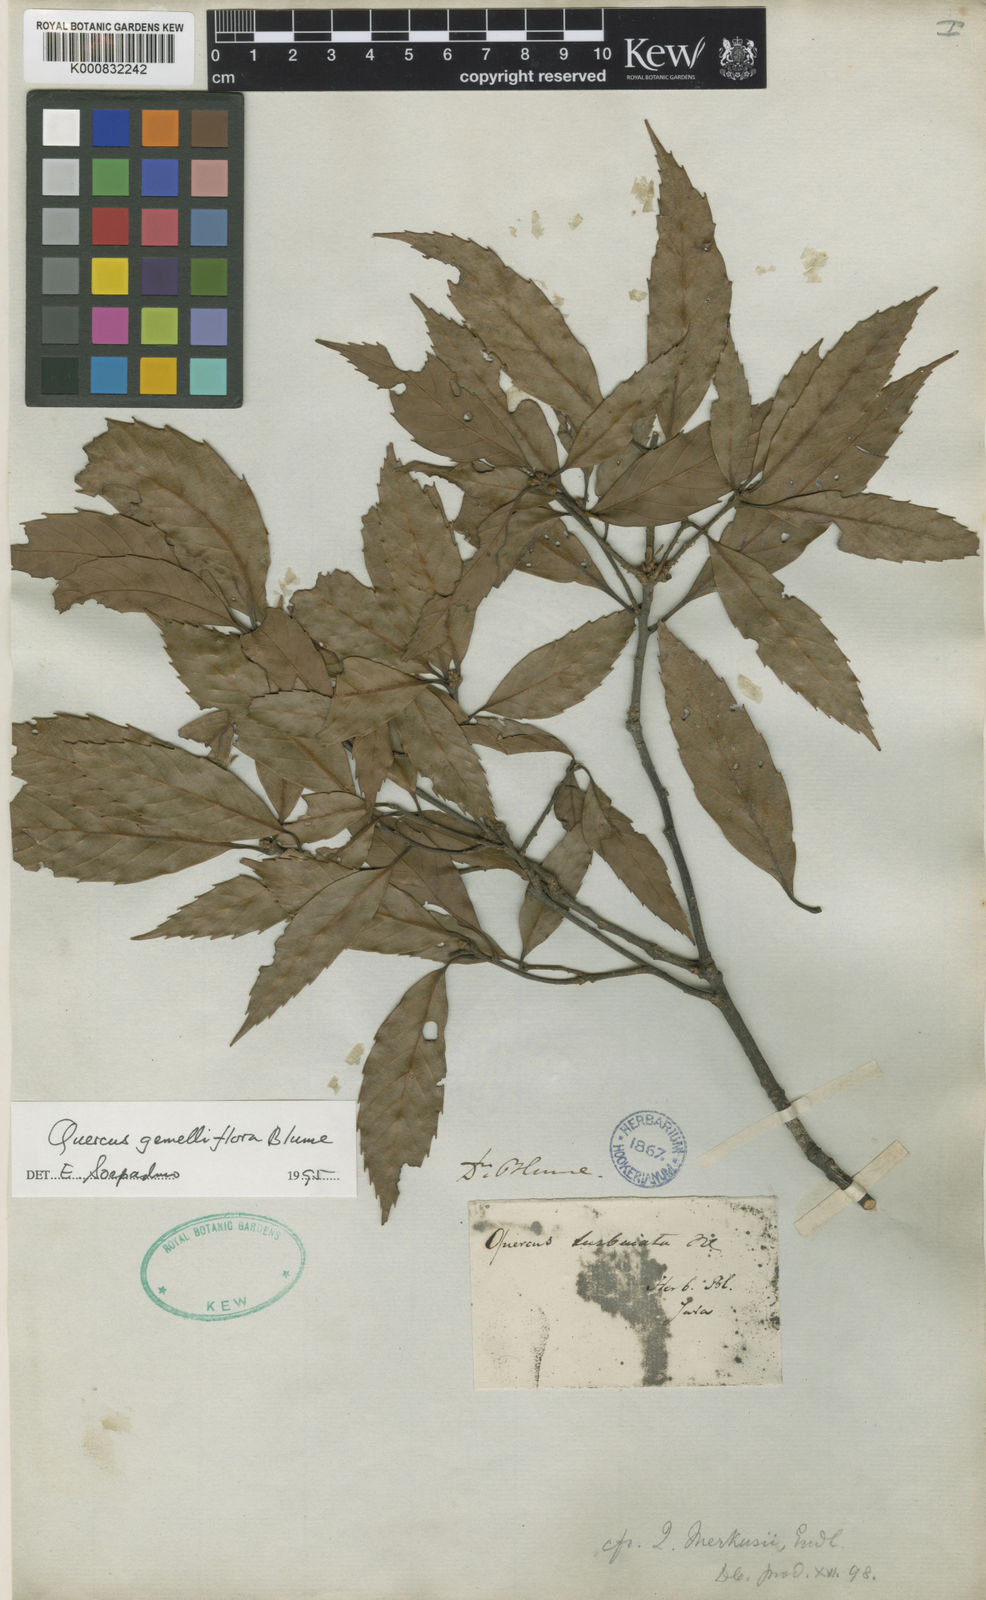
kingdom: Plantae
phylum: Tracheophyta
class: Magnoliopsida
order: Fagales
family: Fagaceae
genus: Quercus
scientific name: Quercus gemelliflora
